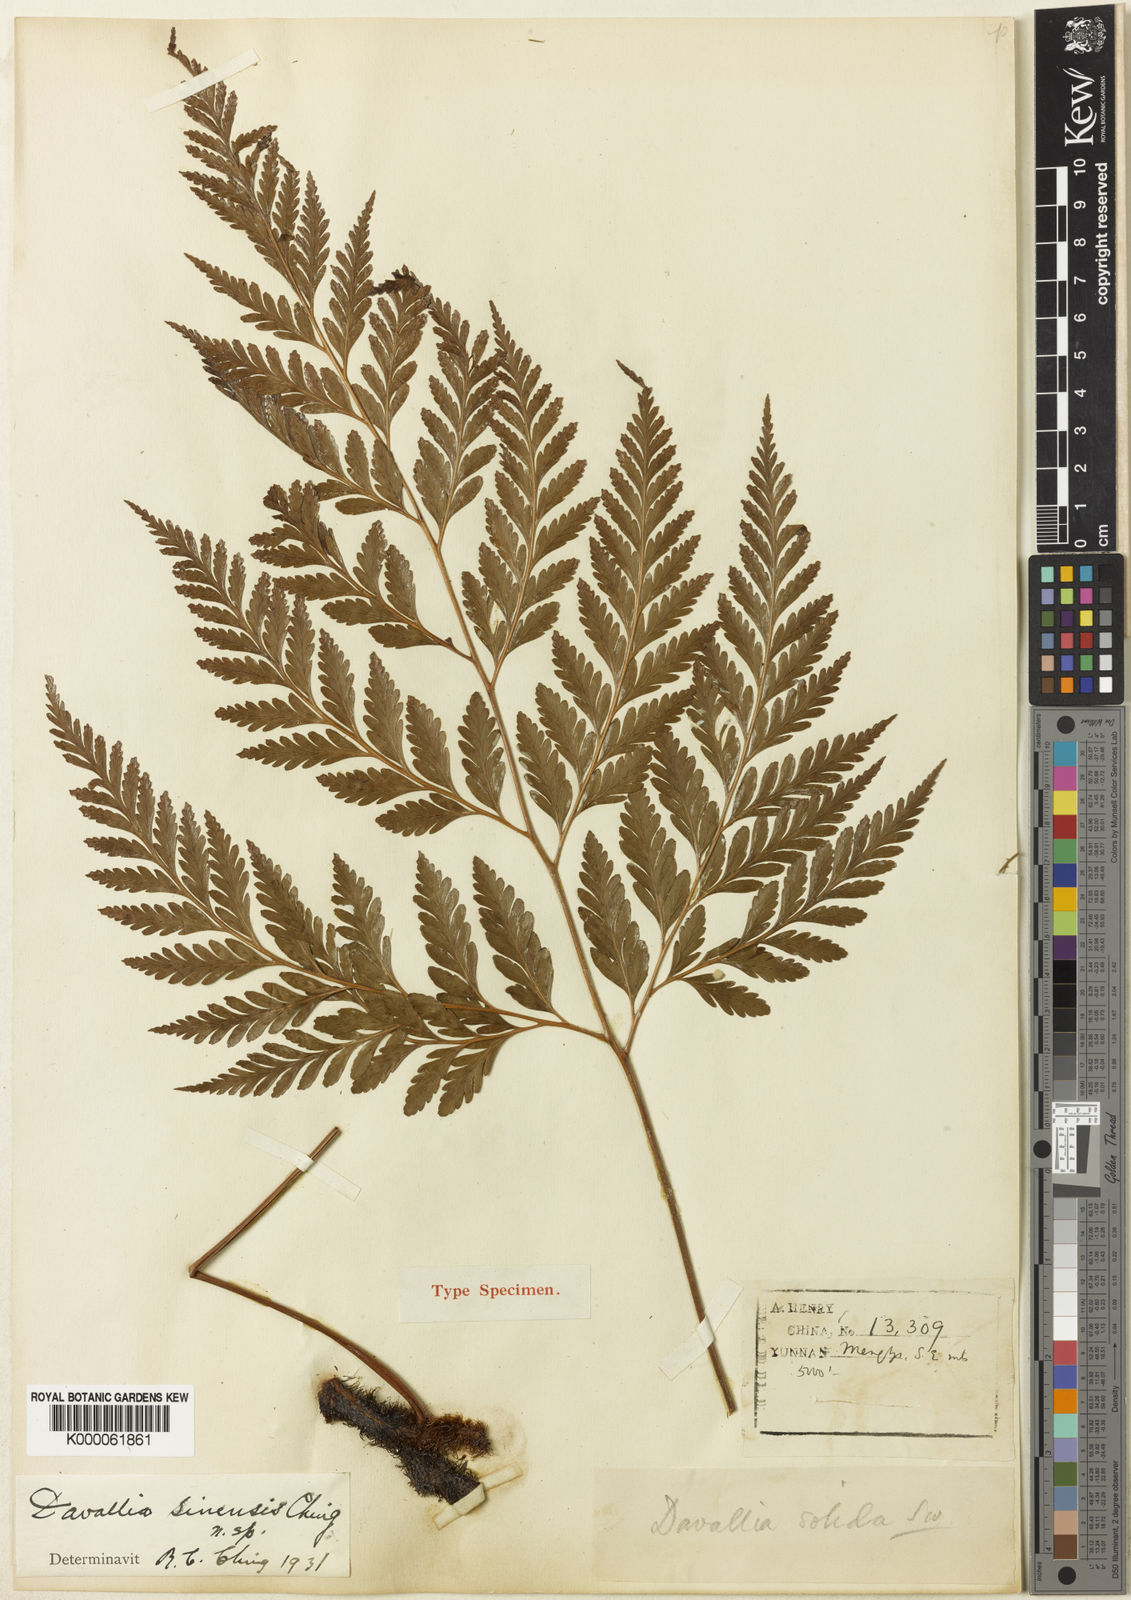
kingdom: Plantae
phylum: Tracheophyta
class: Polypodiopsida
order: Polypodiales
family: Davalliaceae
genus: Davallia
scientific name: Davallia solida
